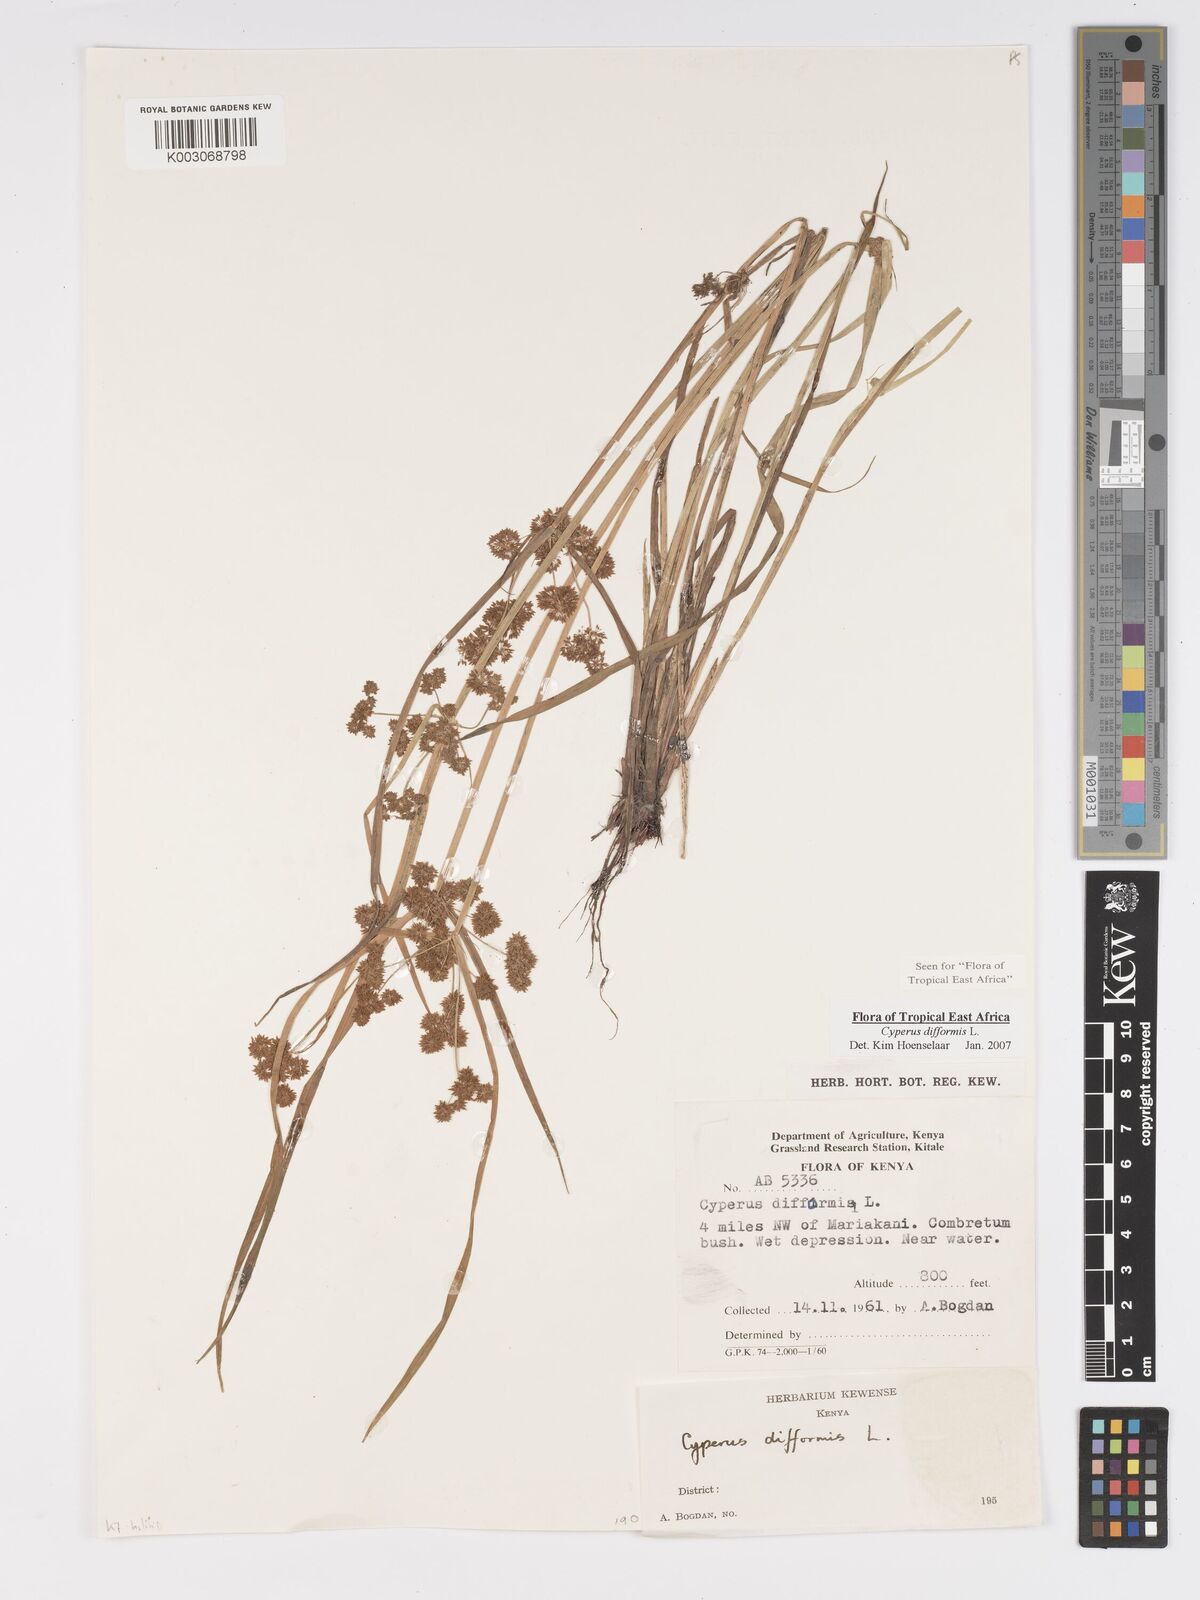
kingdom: Plantae
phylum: Tracheophyta
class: Liliopsida
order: Poales
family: Cyperaceae
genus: Cyperus
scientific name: Cyperus difformis
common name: Variable flatsedge
